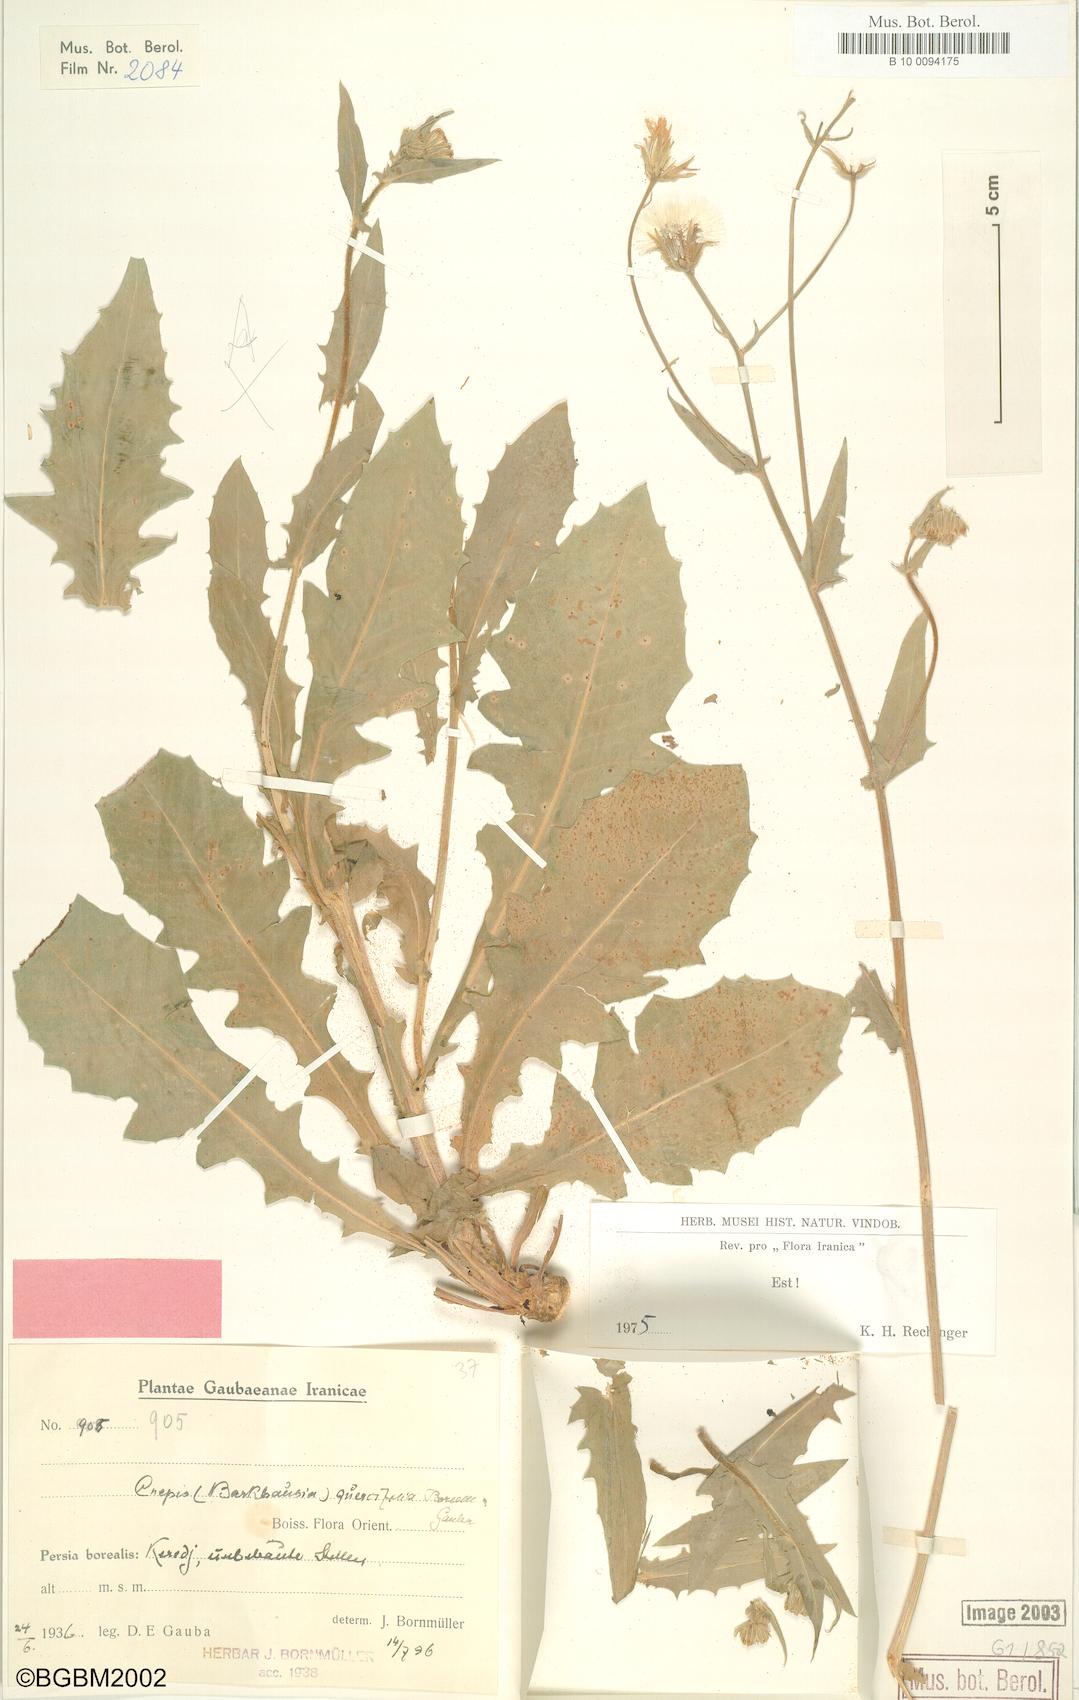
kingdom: Plantae
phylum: Tracheophyta
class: Magnoliopsida
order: Asterales
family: Asteraceae
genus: Crepis
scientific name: Crepis quercifolia
